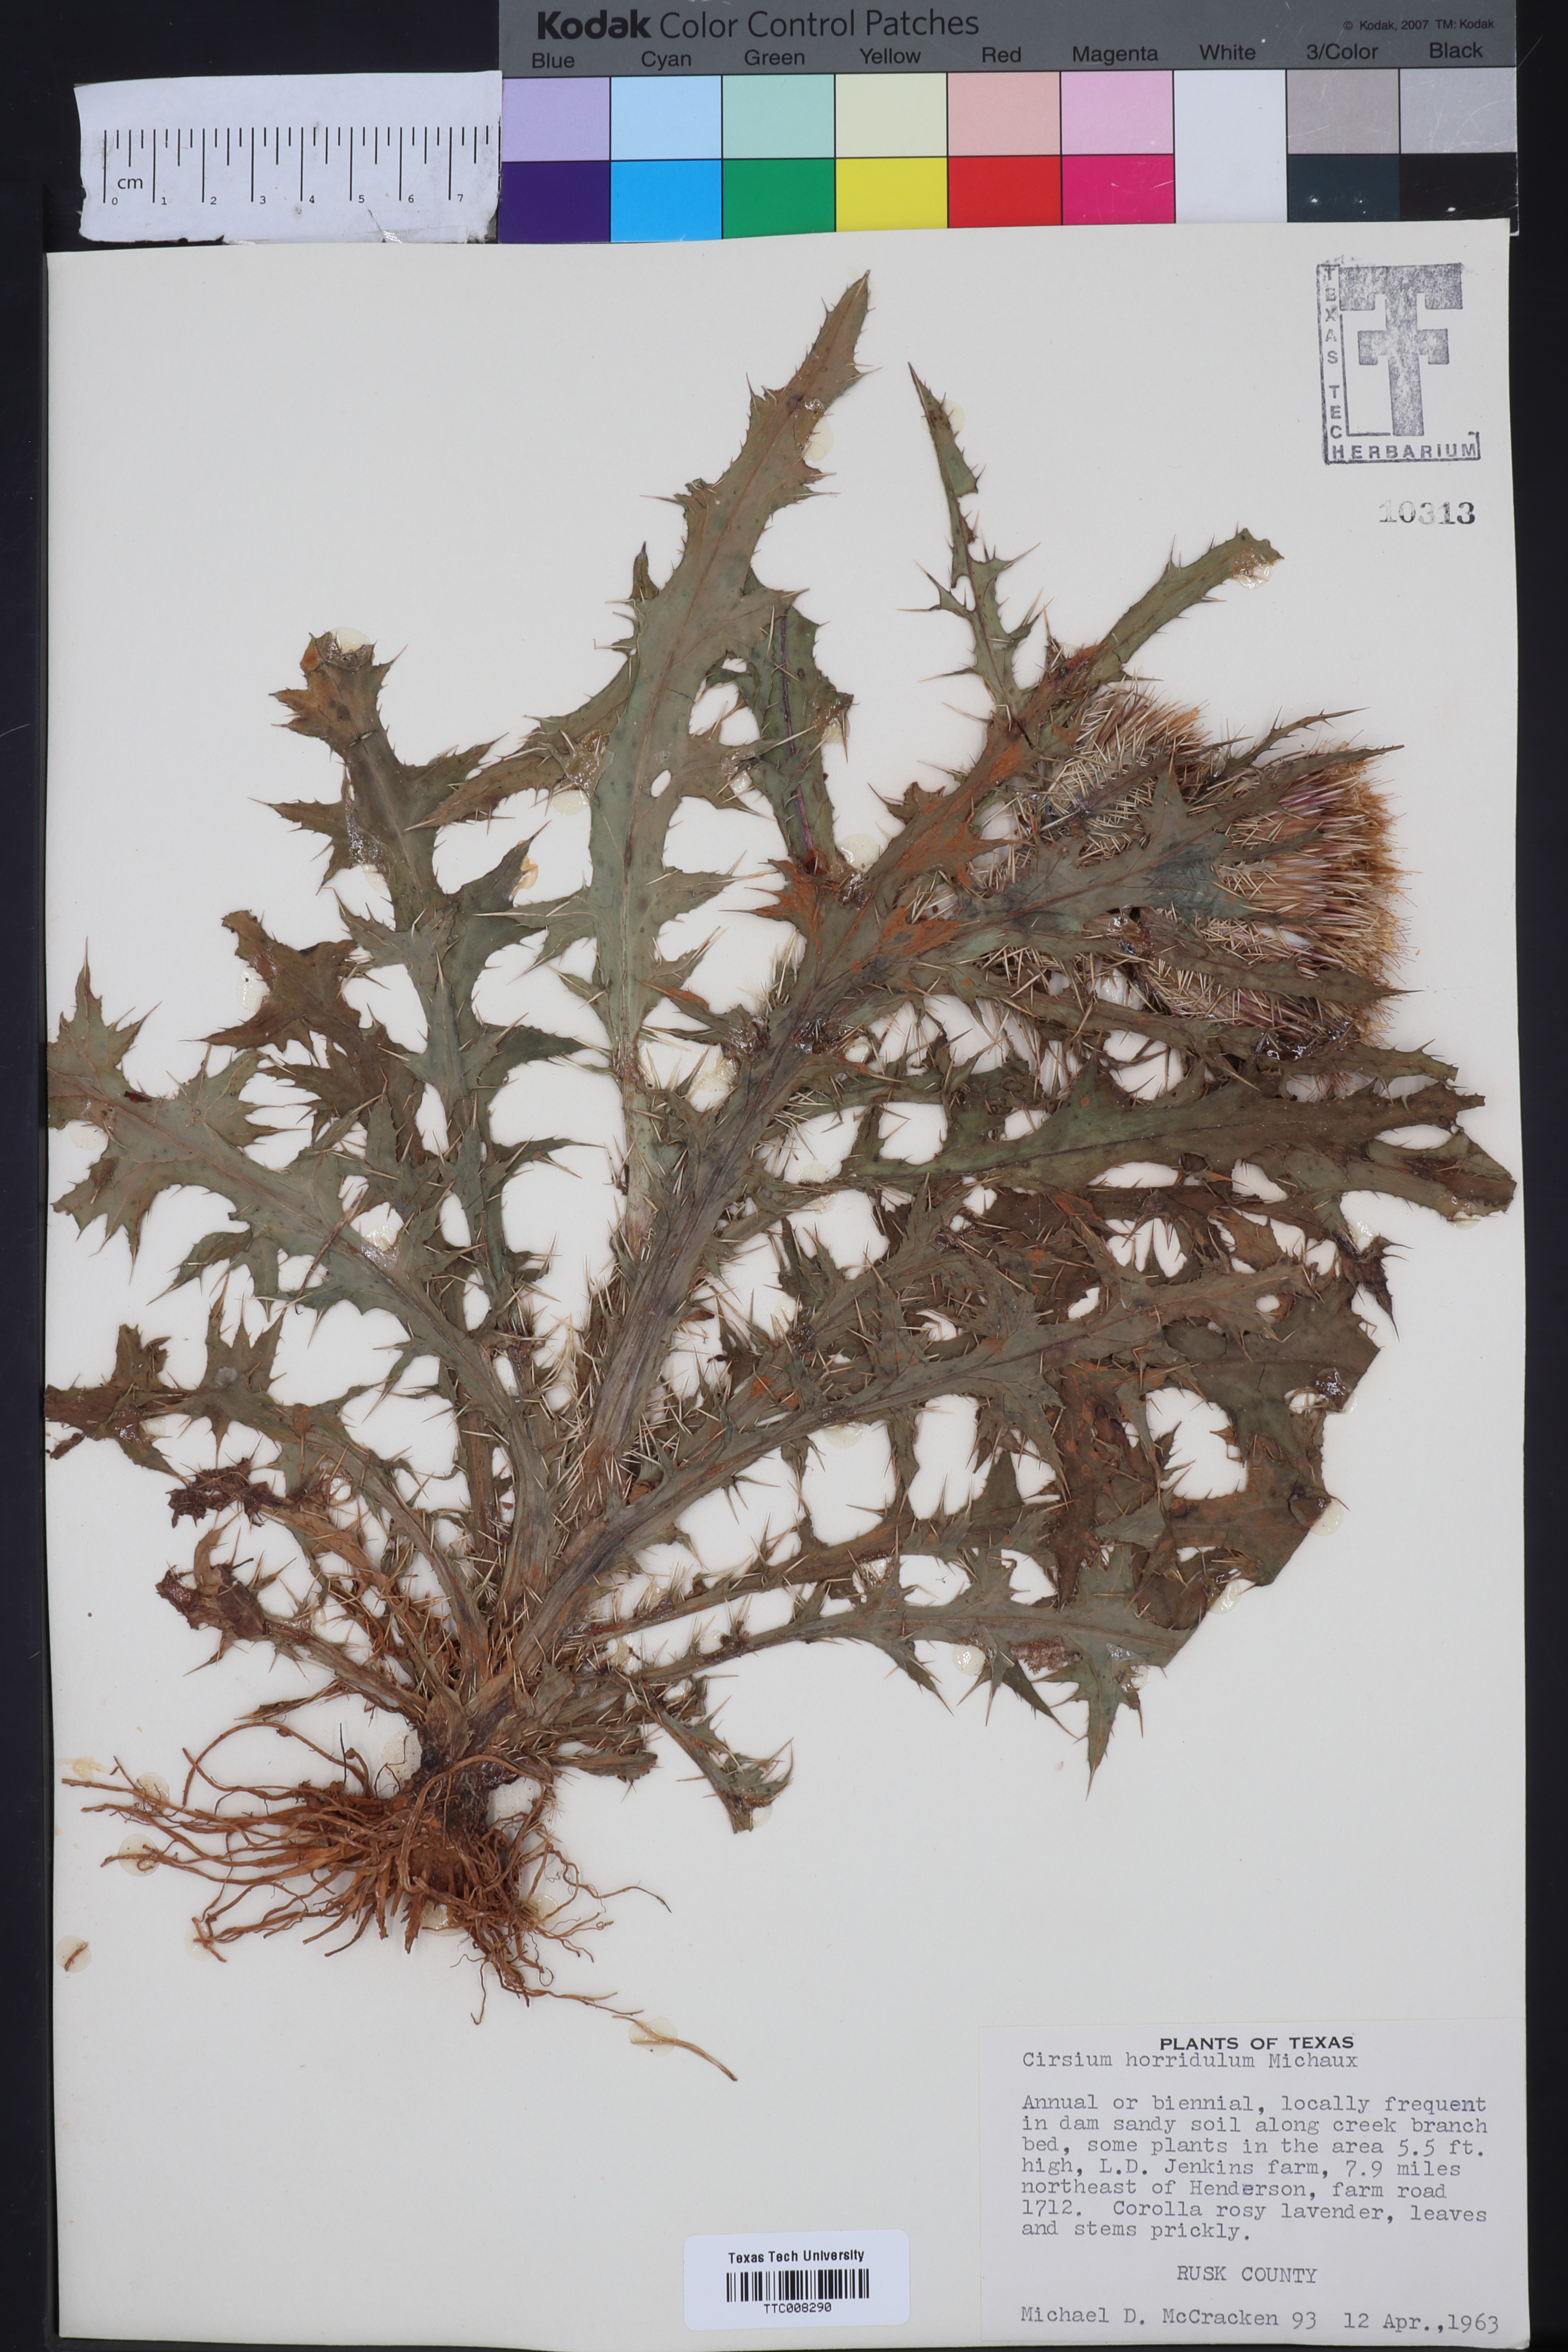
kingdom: Plantae
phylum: Tracheophyta
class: Magnoliopsida
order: Asterales
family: Asteraceae
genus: Cirsium
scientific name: Cirsium horridulum
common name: Bristly thistle
